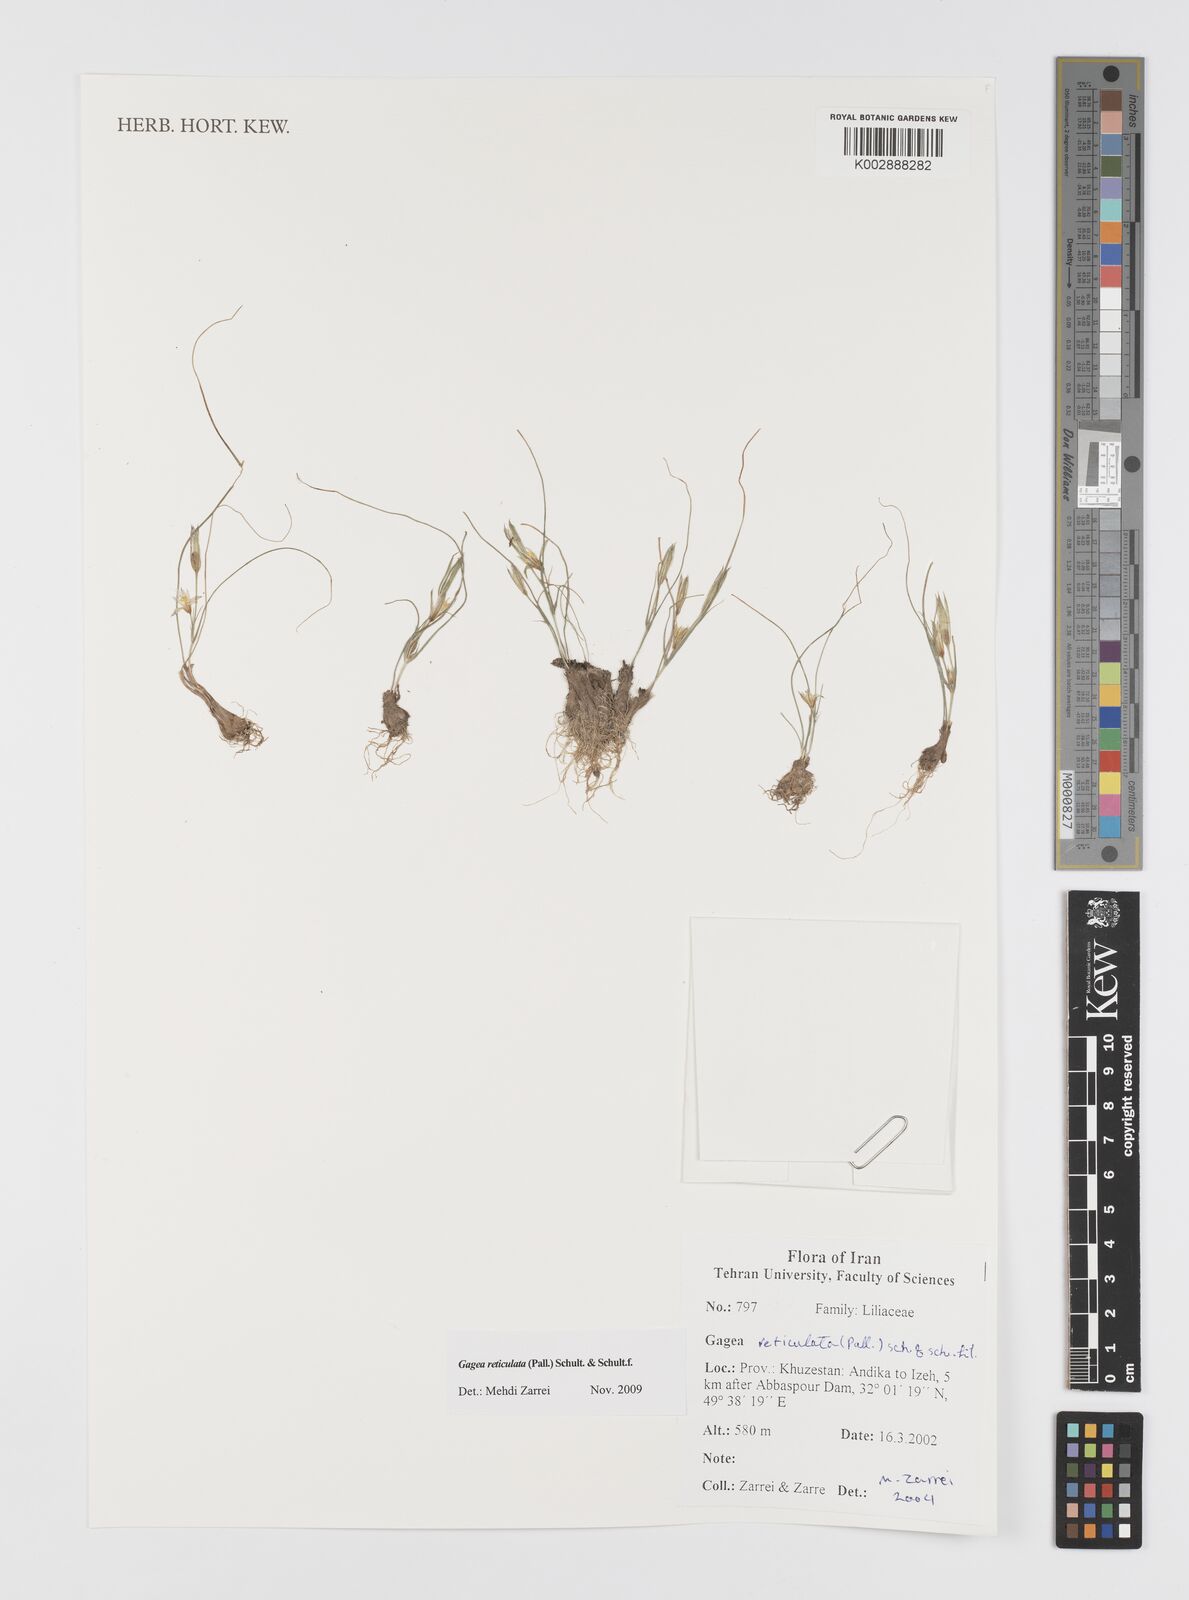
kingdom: Plantae
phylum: Tracheophyta
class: Liliopsida
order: Liliales
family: Liliaceae
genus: Gagea
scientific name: Gagea reticulata
